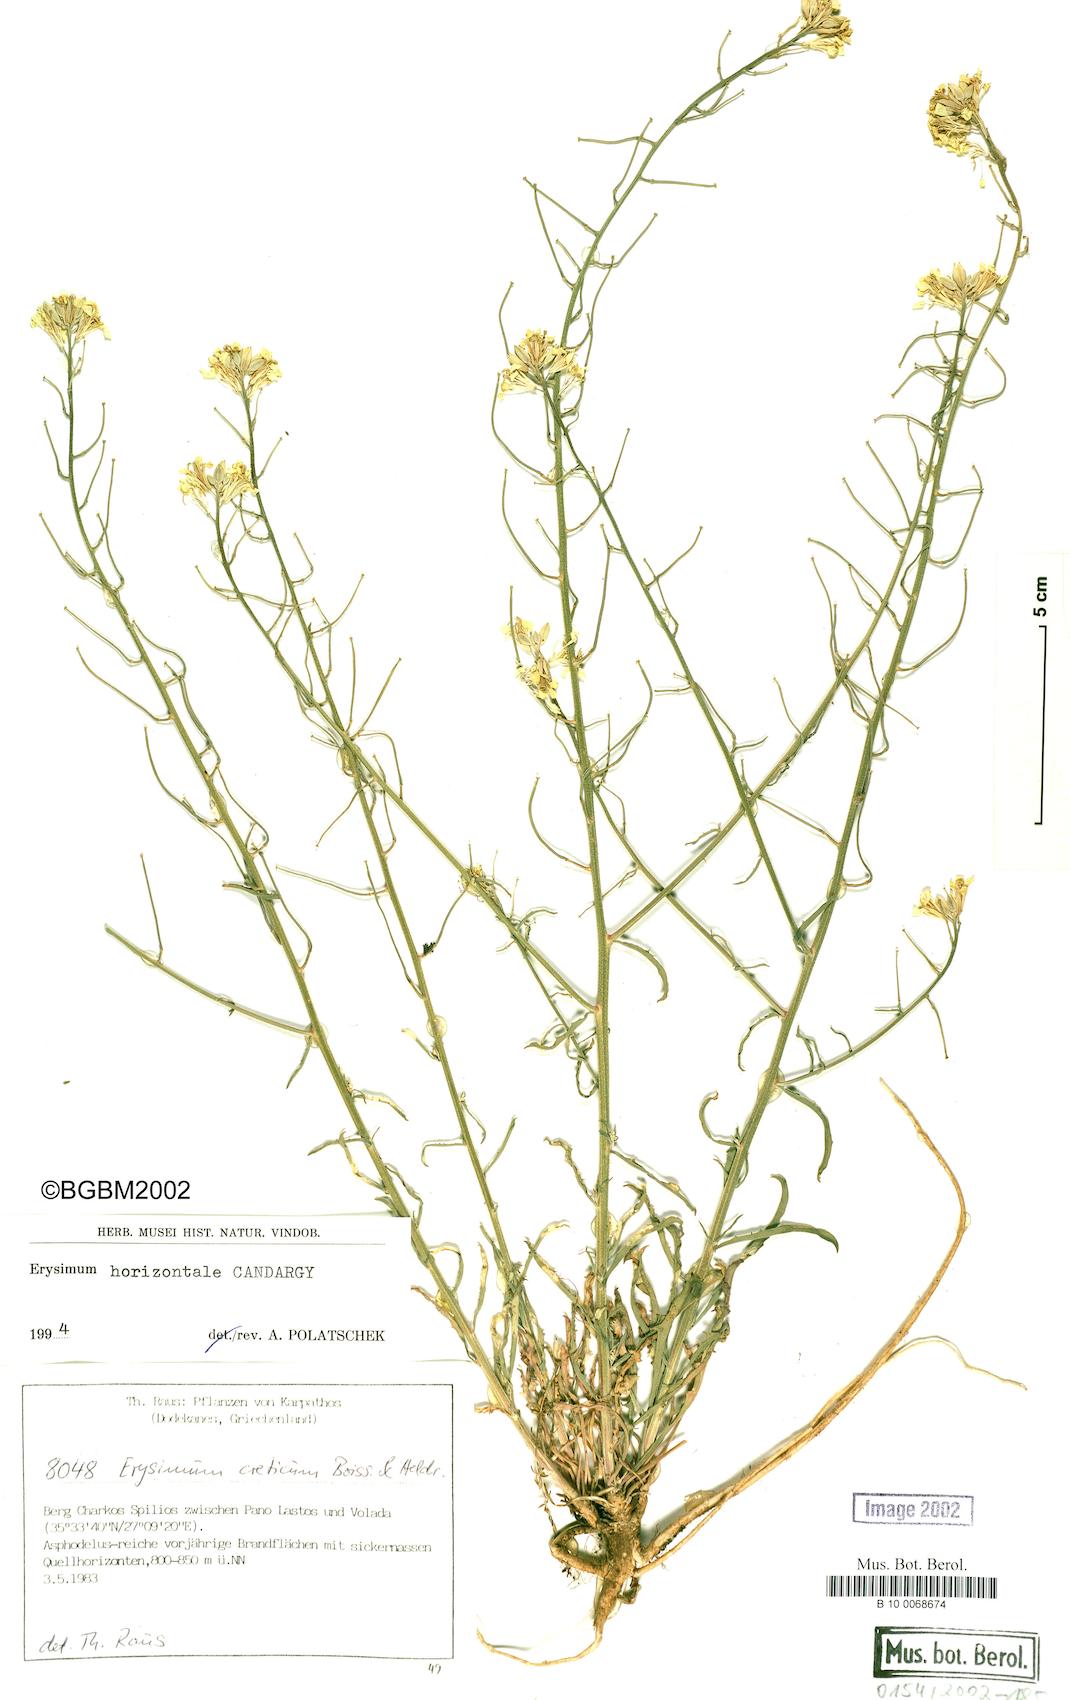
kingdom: Plantae
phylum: Tracheophyta
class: Magnoliopsida
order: Brassicales
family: Brassicaceae
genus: Erysimum
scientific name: Erysimum horizontale
